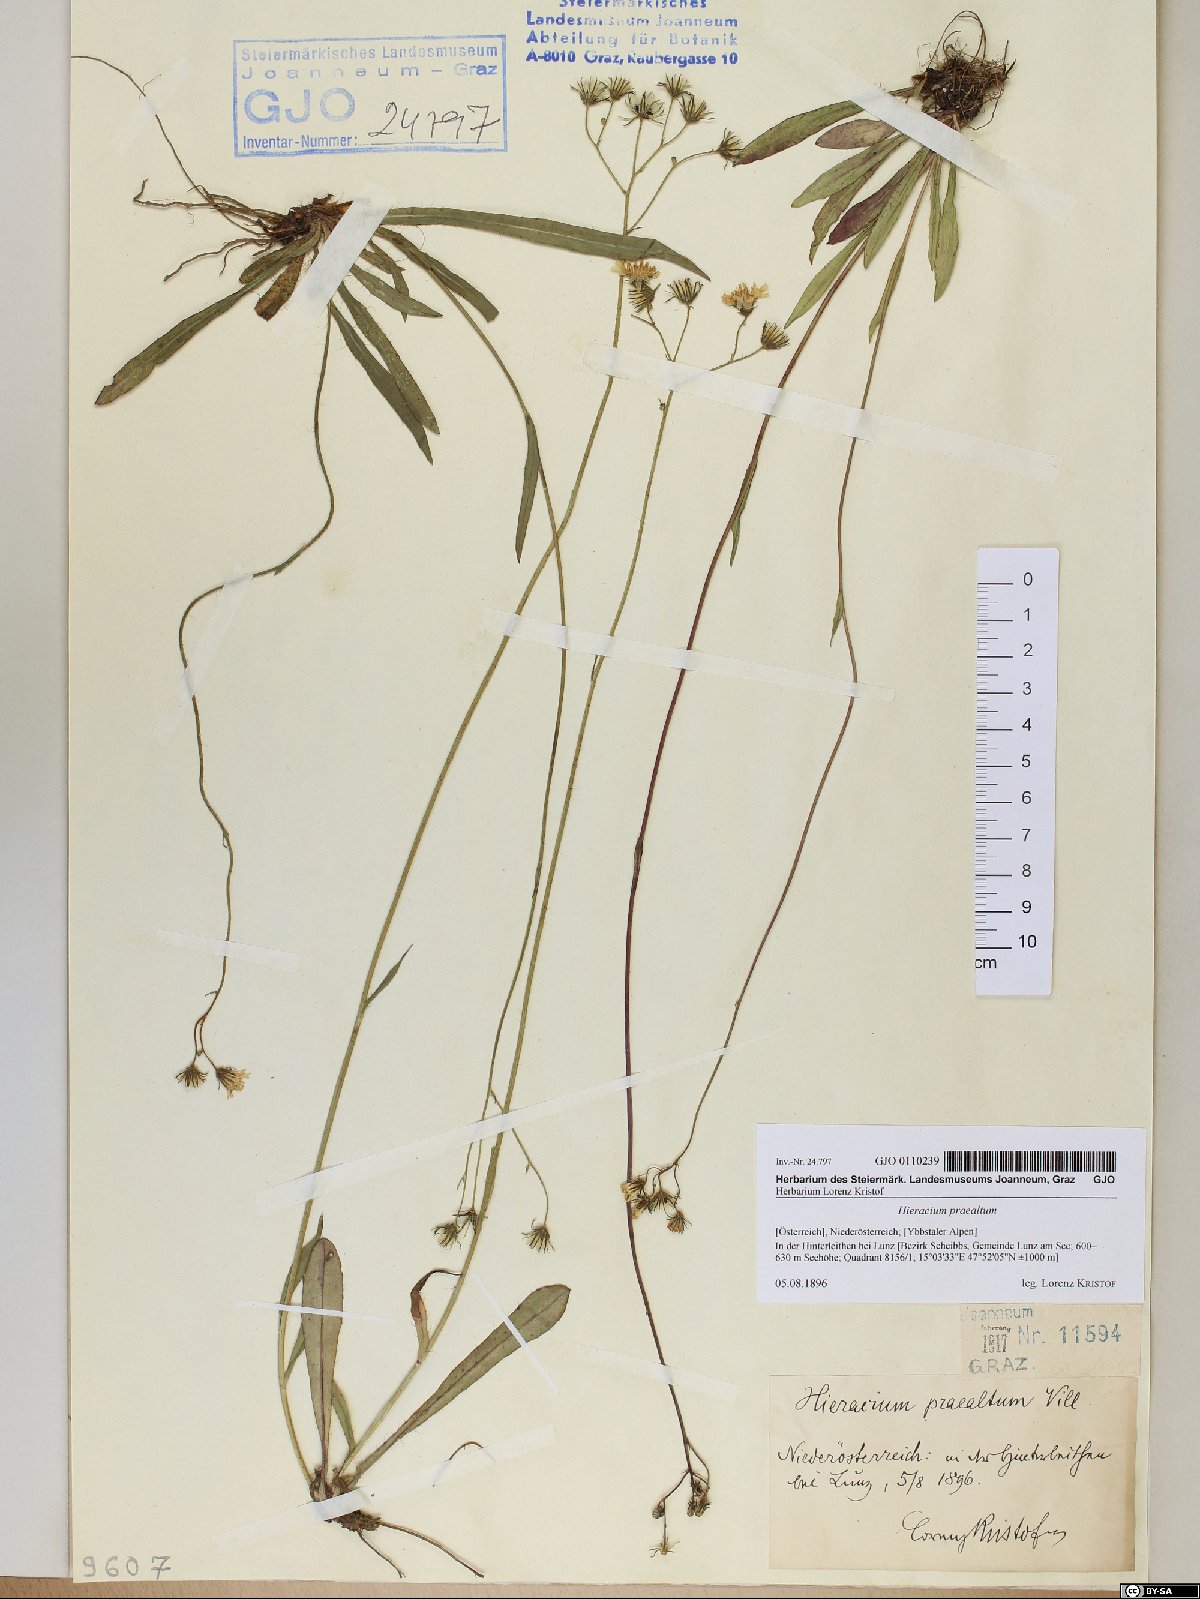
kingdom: Plantae
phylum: Tracheophyta
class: Magnoliopsida
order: Asterales
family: Asteraceae
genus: Pilosella
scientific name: Pilosella piloselloides
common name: Glaucous king-devil
